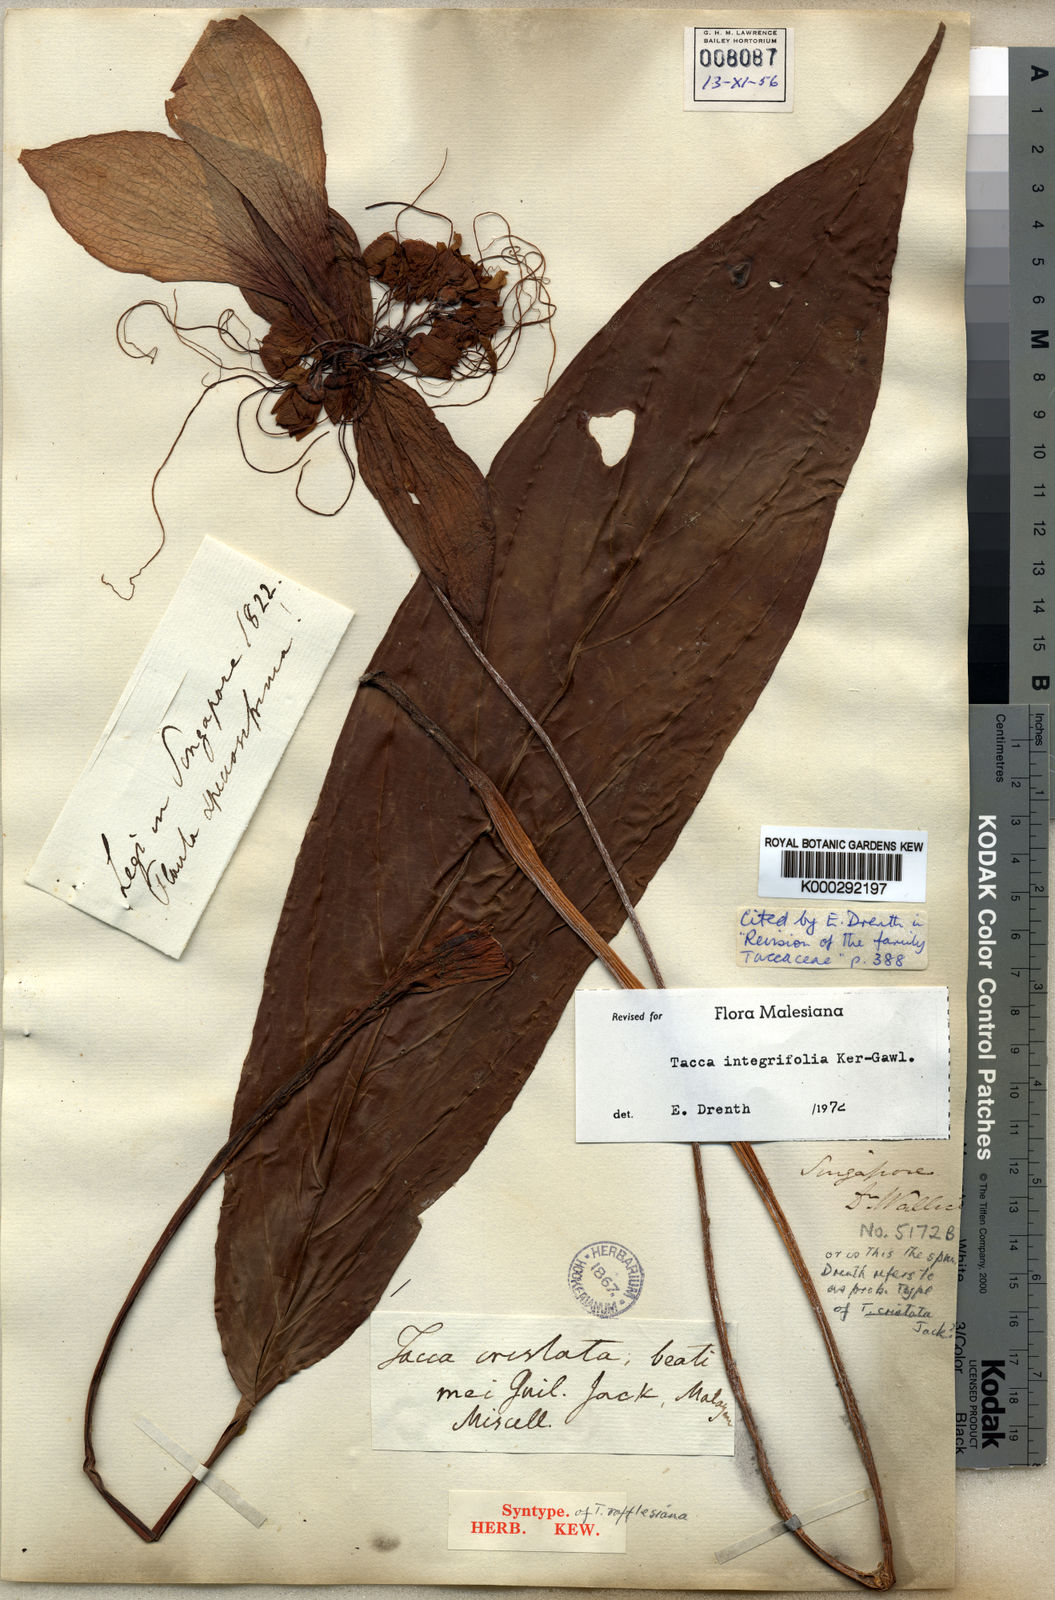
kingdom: Plantae
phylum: Tracheophyta
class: Liliopsida
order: Dioscoreales
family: Dioscoreaceae
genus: Tacca
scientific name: Tacca integrifolia
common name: Batplant
